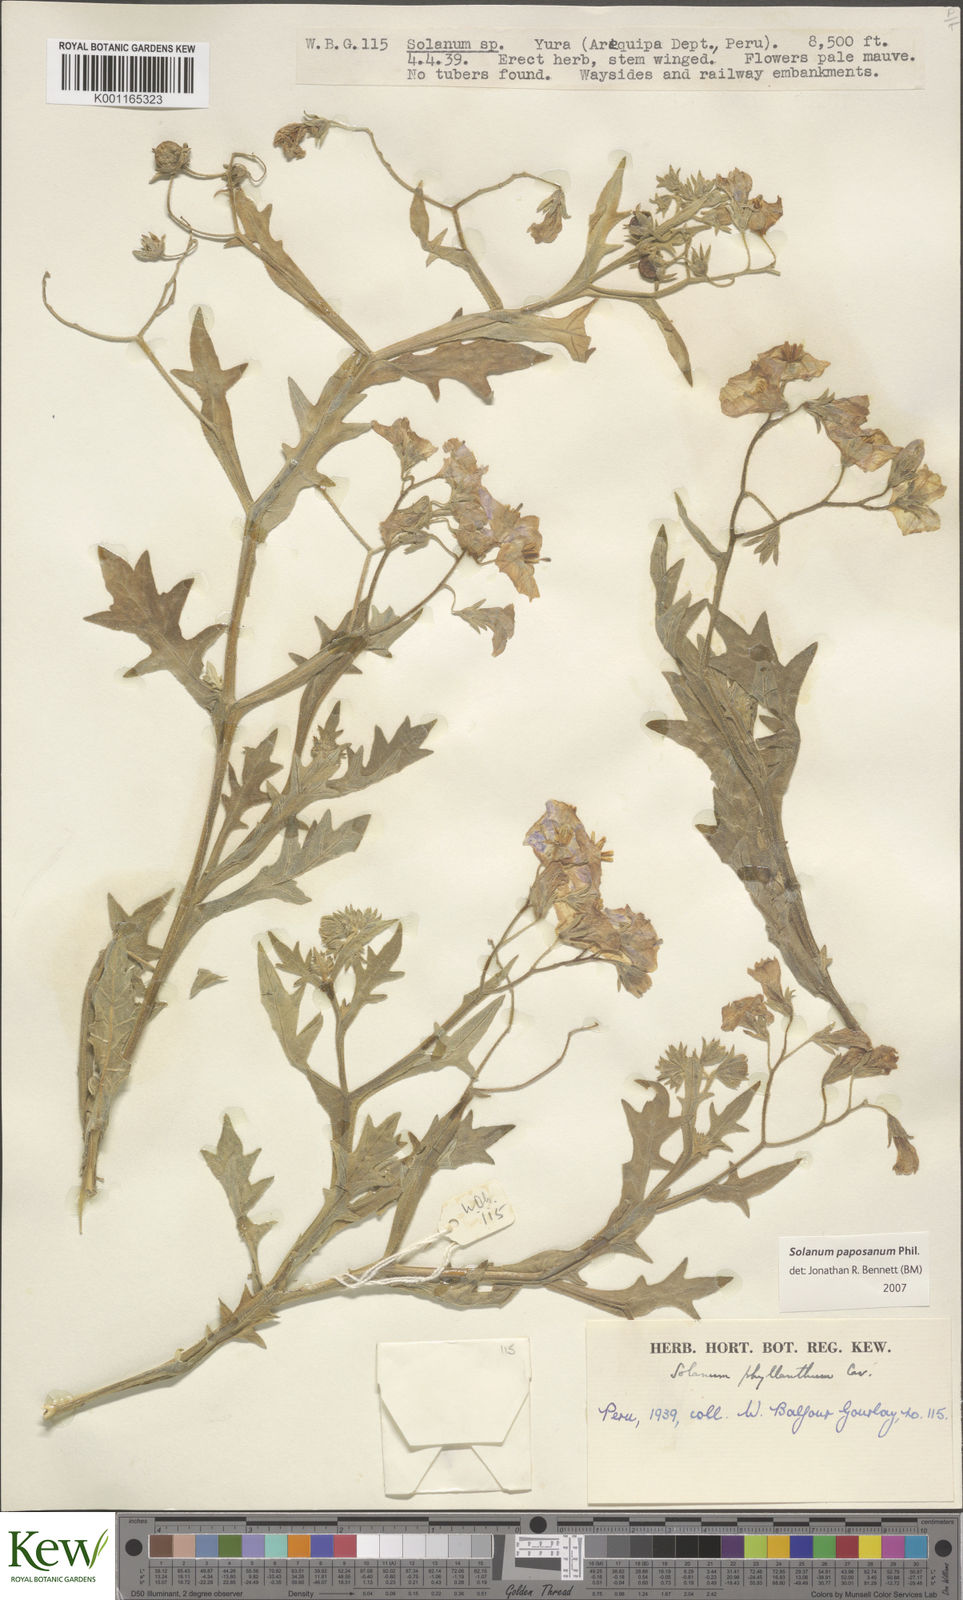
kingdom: Plantae
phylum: Tracheophyta
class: Magnoliopsida
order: Solanales
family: Solanaceae
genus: Solanum
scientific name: Solanum paposanum
